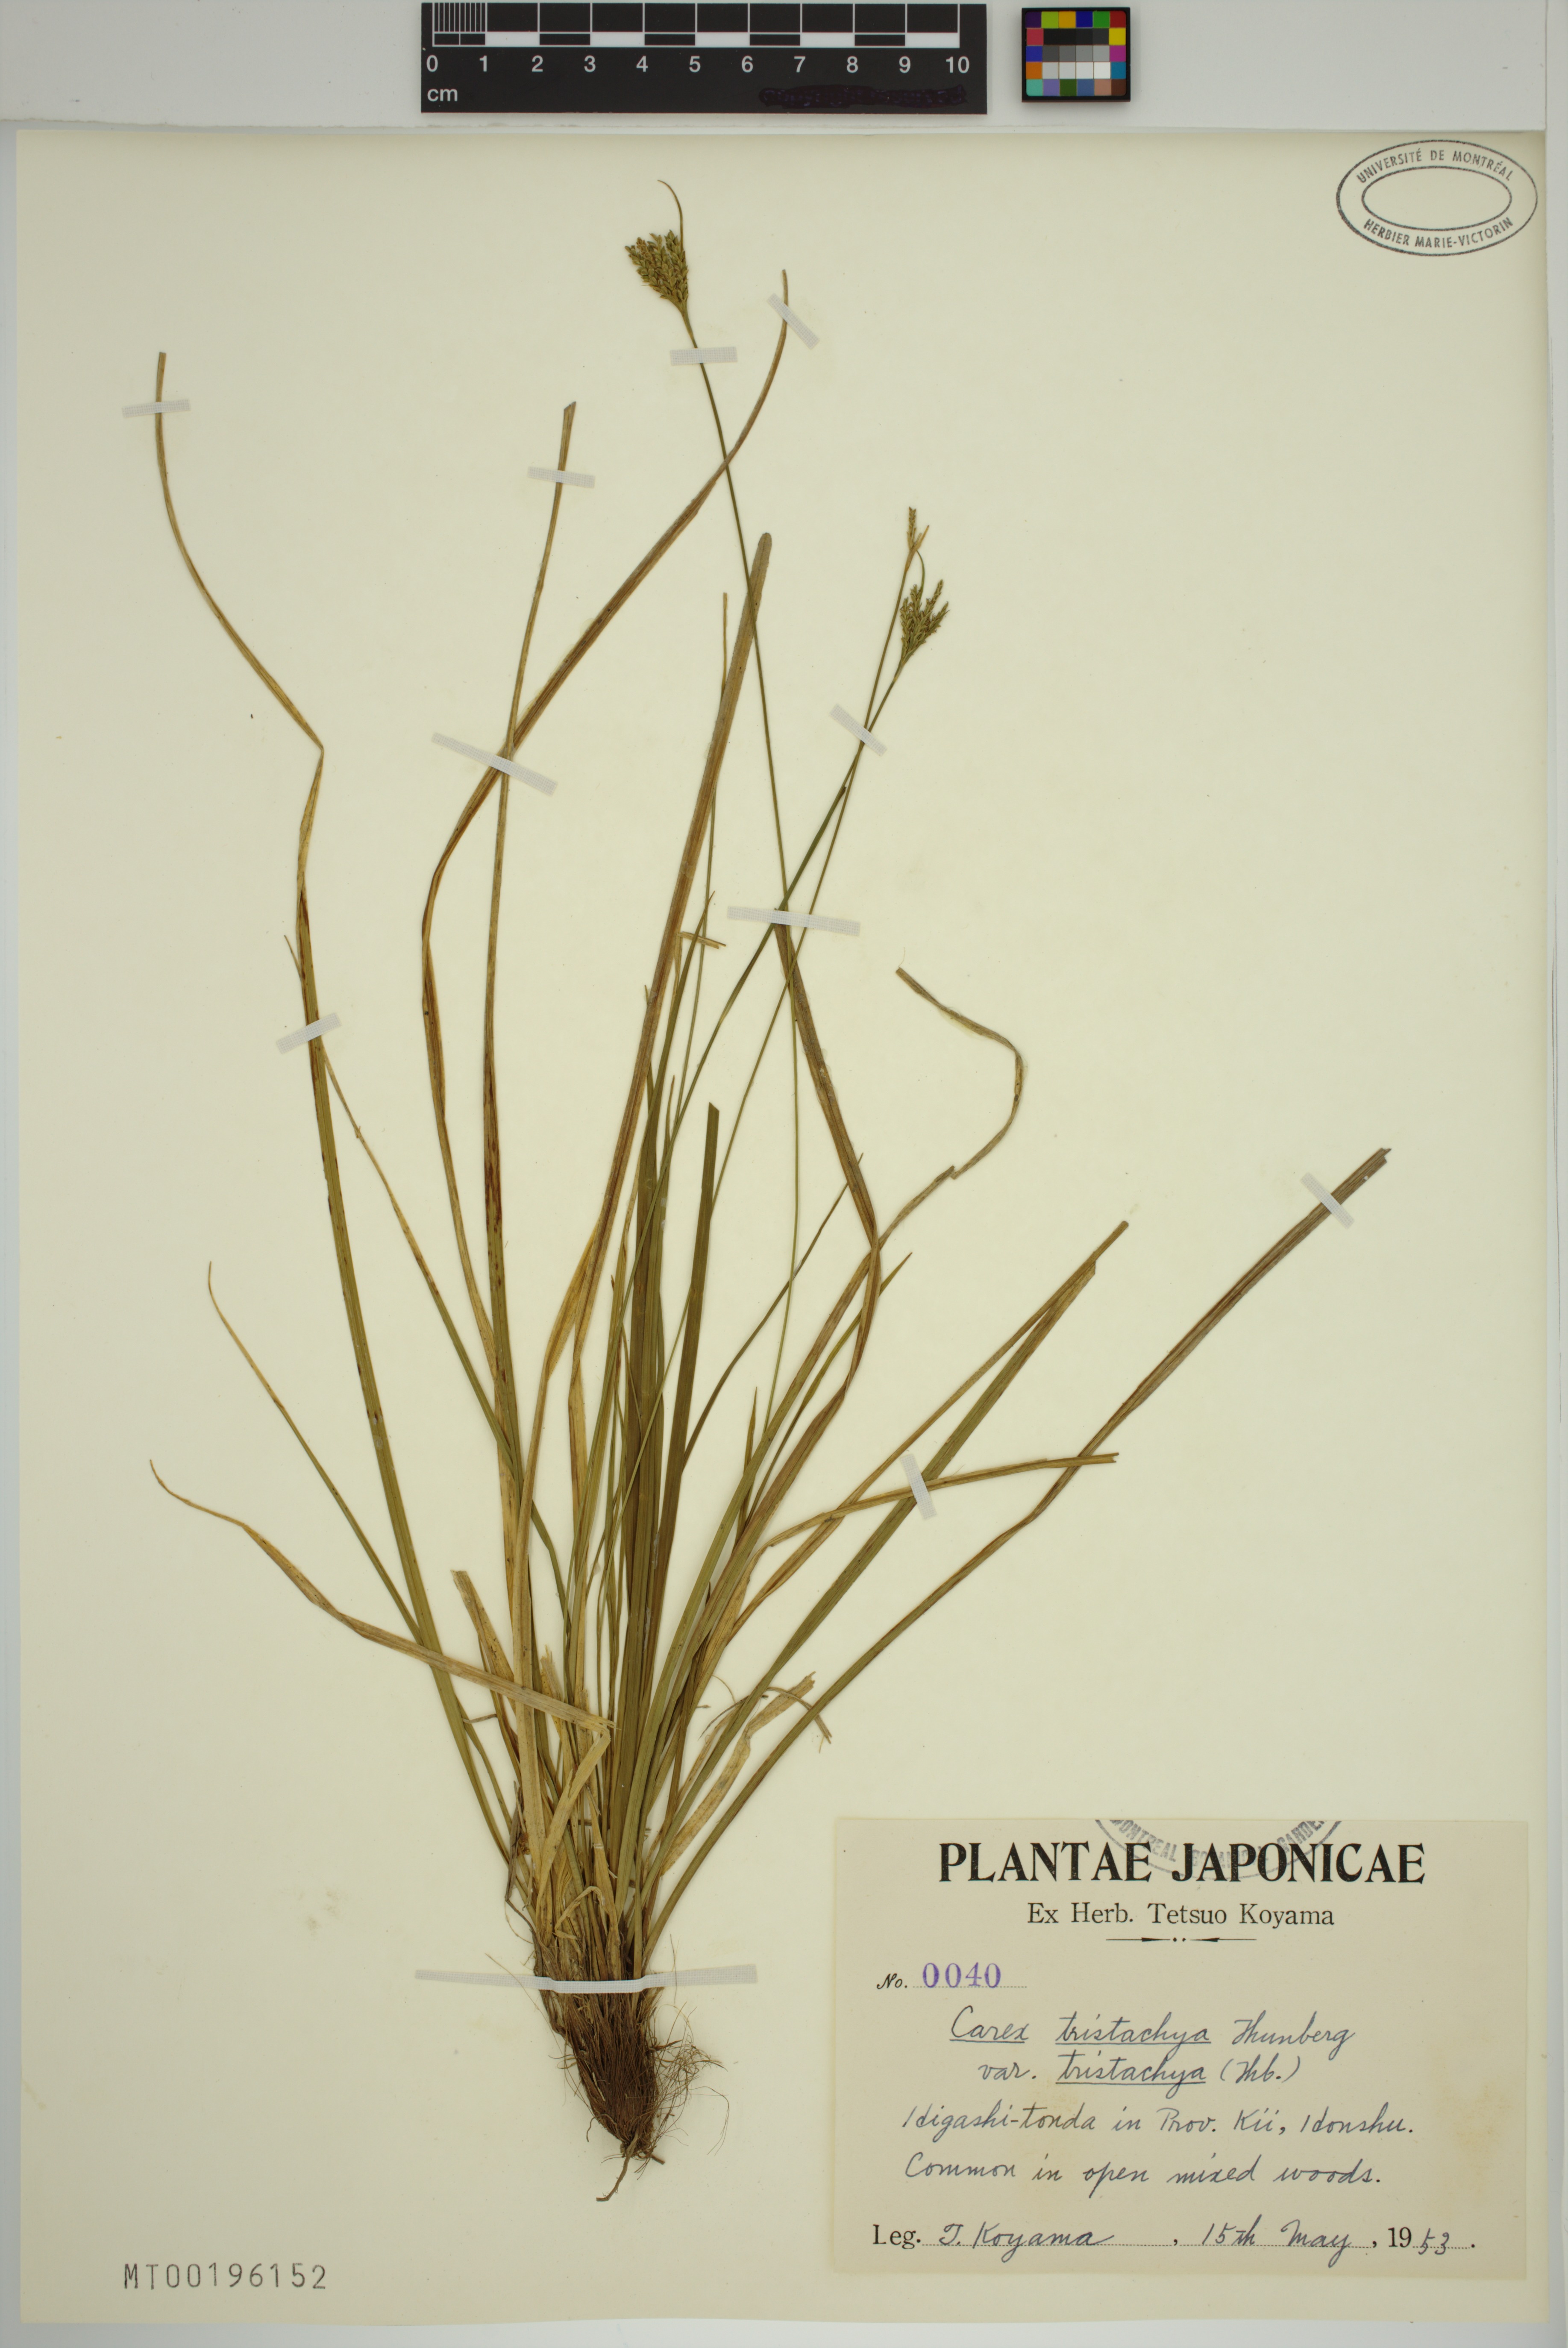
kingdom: Plantae
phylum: Tracheophyta
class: Liliopsida
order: Poales
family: Cyperaceae
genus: Carex
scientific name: Carex tristachya
